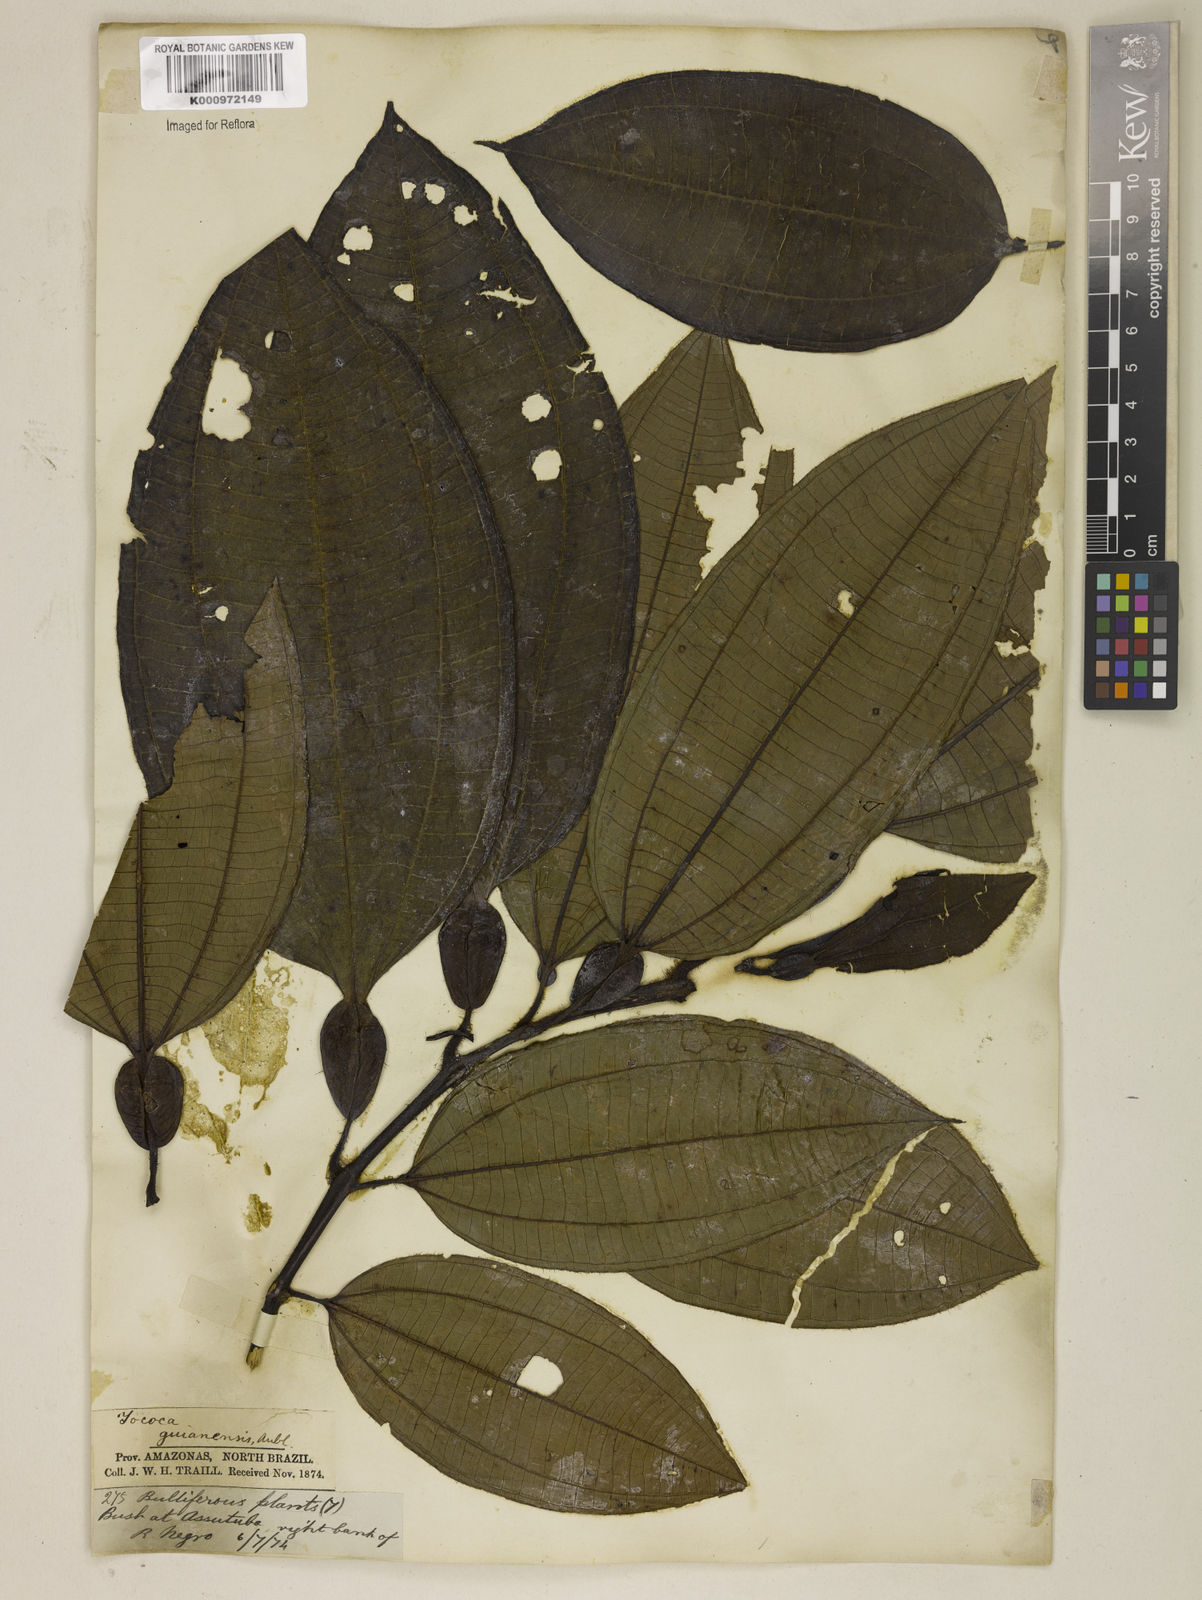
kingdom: Plantae
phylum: Tracheophyta
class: Magnoliopsida
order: Myrtales
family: Melastomataceae
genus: Miconia
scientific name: Miconia tococa
